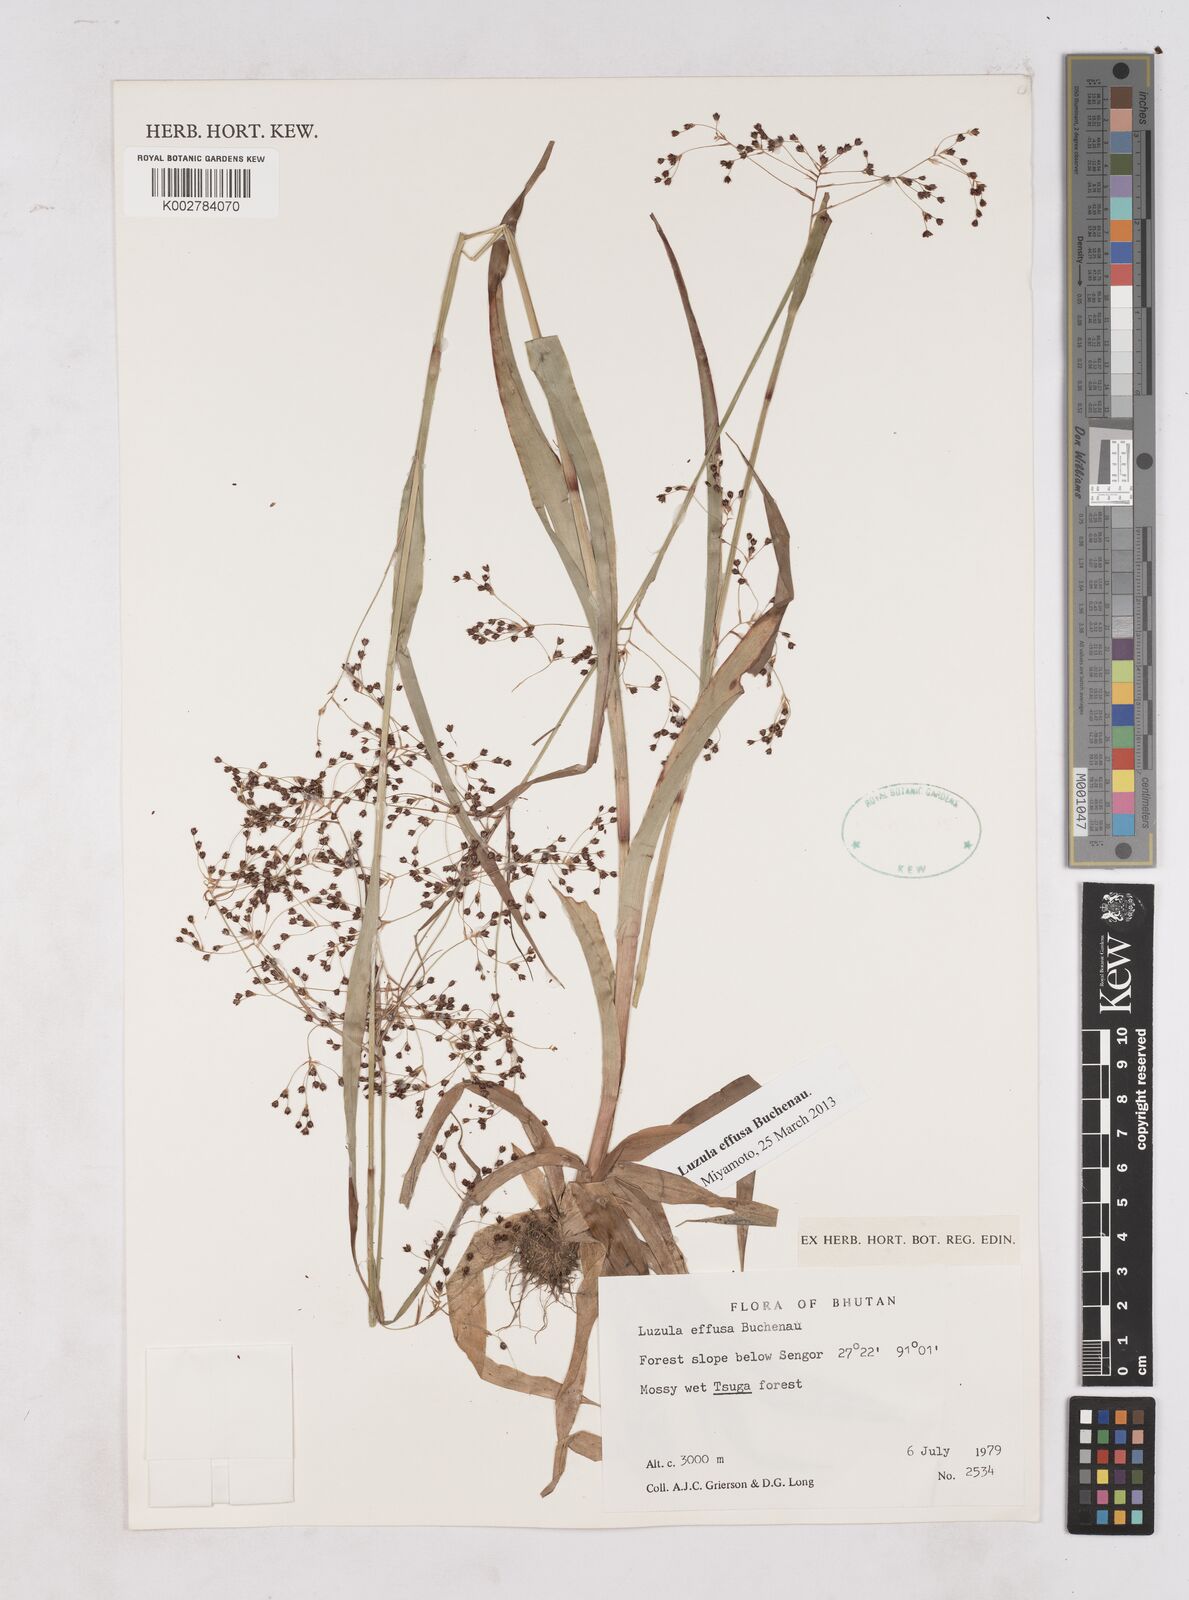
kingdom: Plantae
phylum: Tracheophyta
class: Liliopsida
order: Poales
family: Juncaceae
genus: Luzula
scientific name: Luzula effusa
